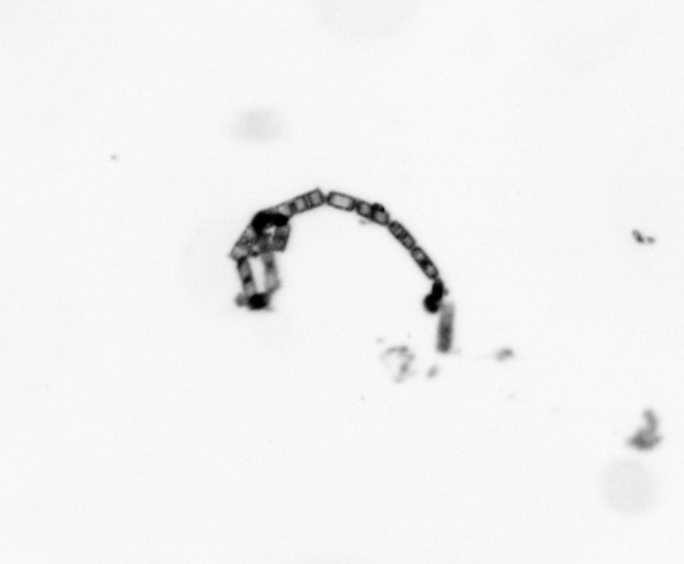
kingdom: Chromista
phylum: Ochrophyta
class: Bacillariophyceae
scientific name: Bacillariophyceae
